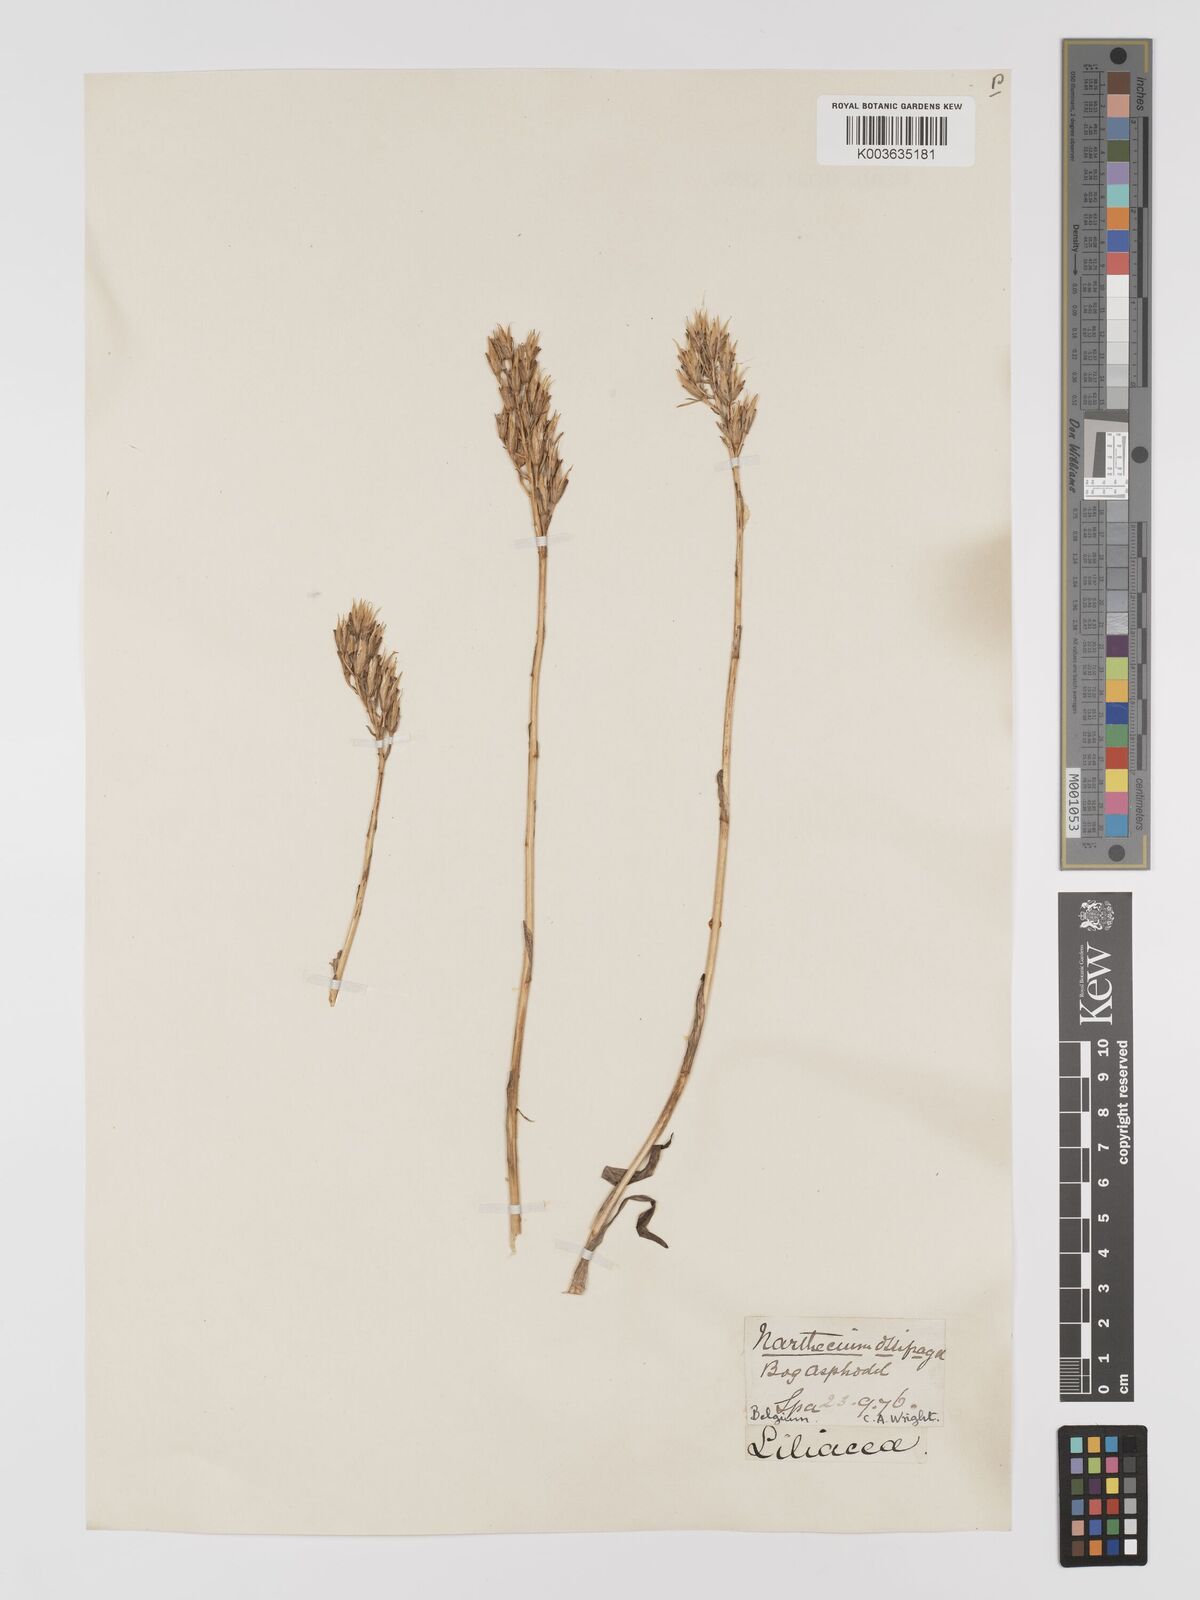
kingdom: Plantae
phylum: Tracheophyta
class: Liliopsida
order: Dioscoreales
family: Nartheciaceae
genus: Narthecium
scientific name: Narthecium ossifragum
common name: Bog asphodel
